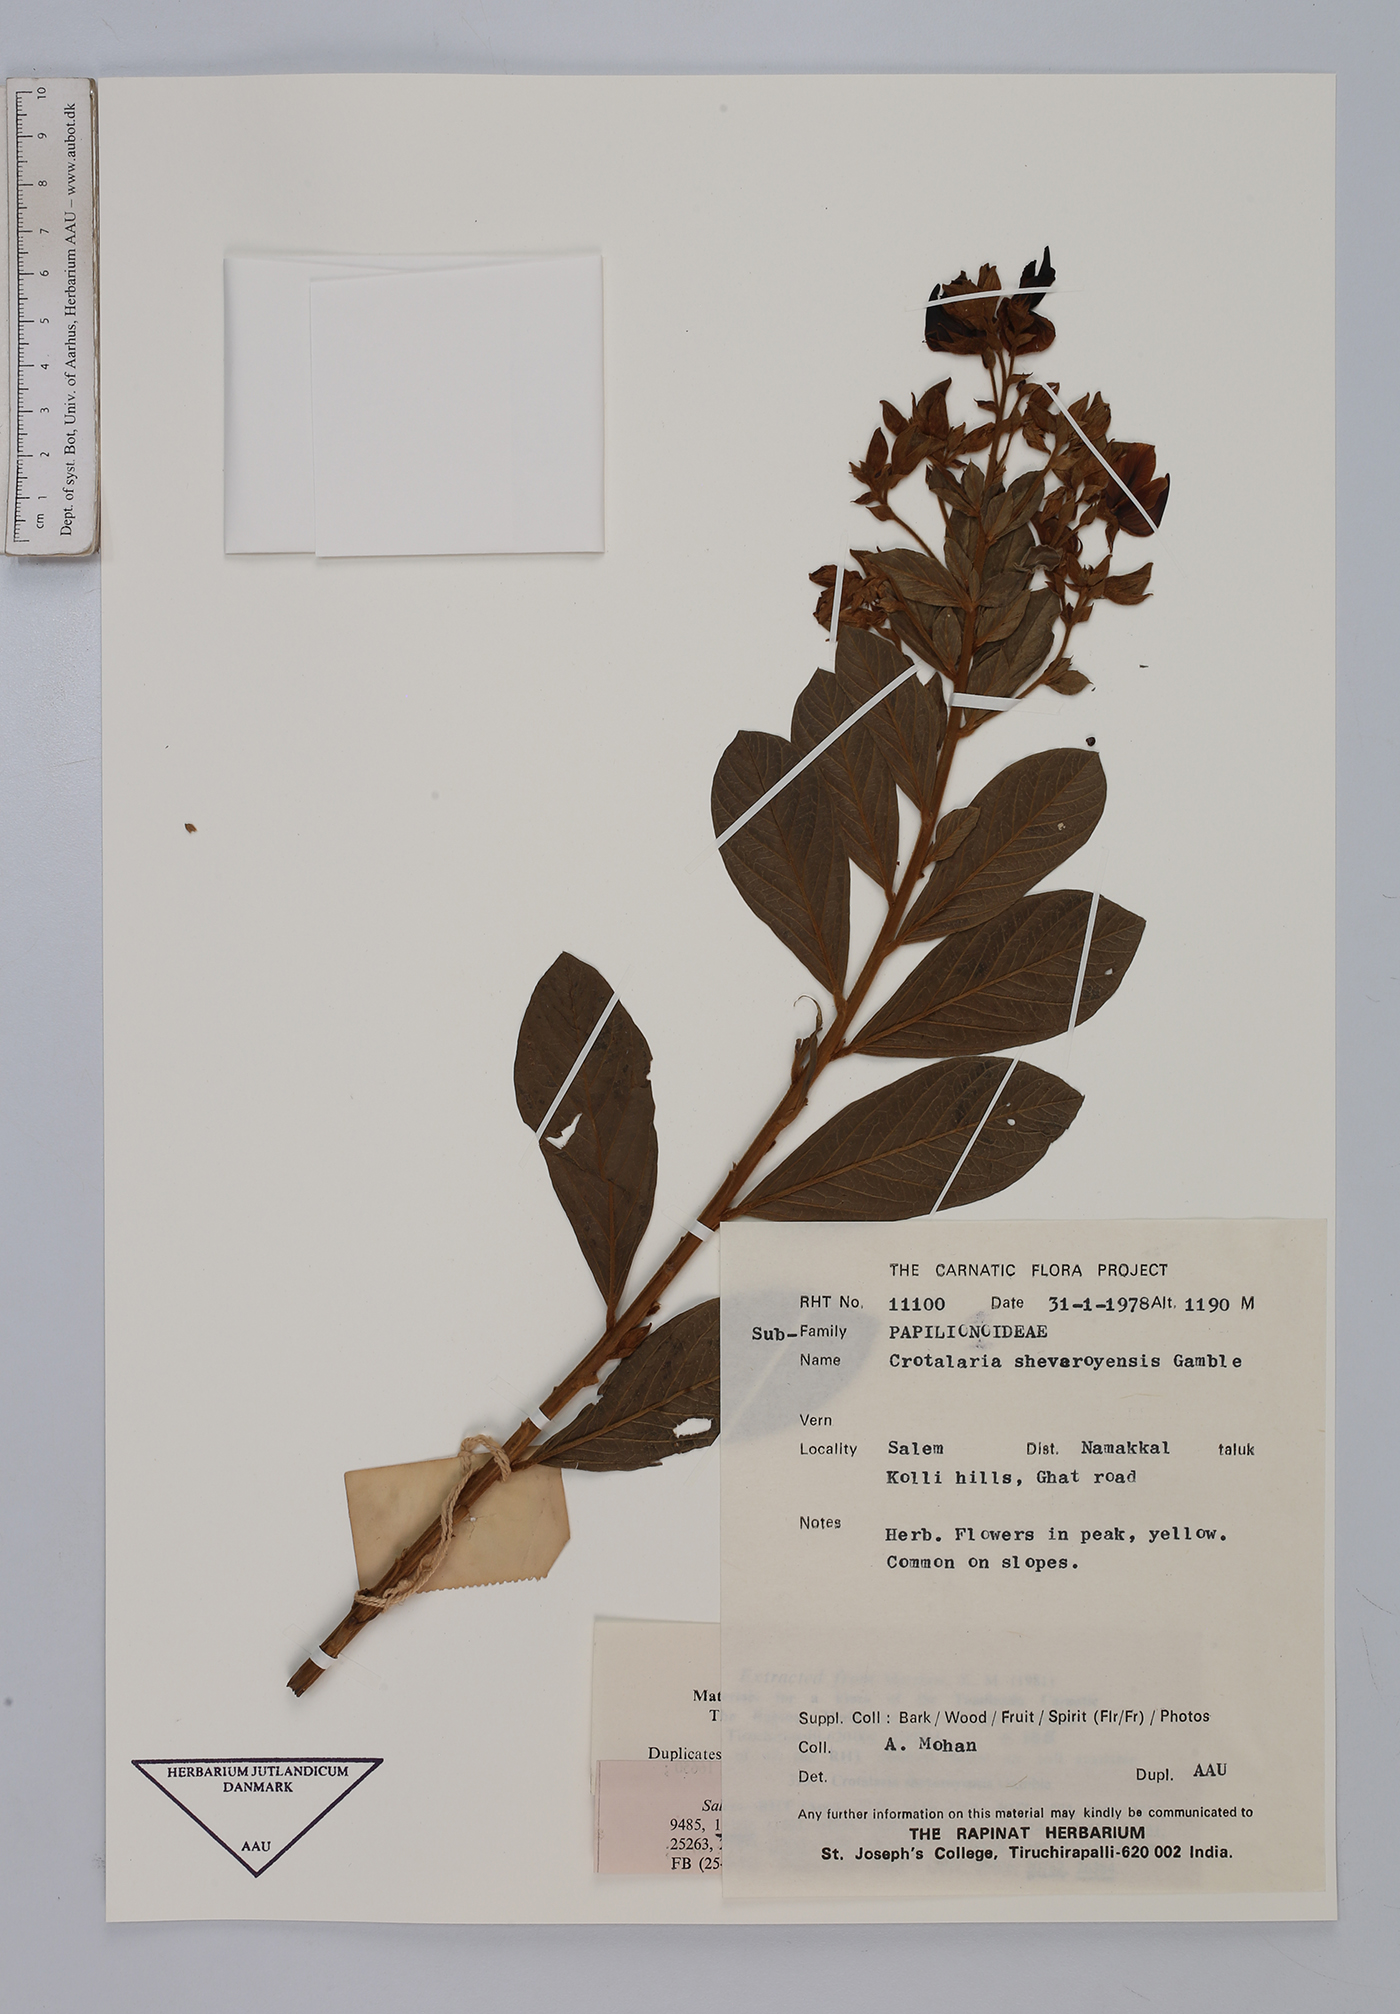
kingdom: Plantae
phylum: Tracheophyta
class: Magnoliopsida
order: Fabales
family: Fabaceae
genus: Crotalaria
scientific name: Crotalaria shevaroyensis
